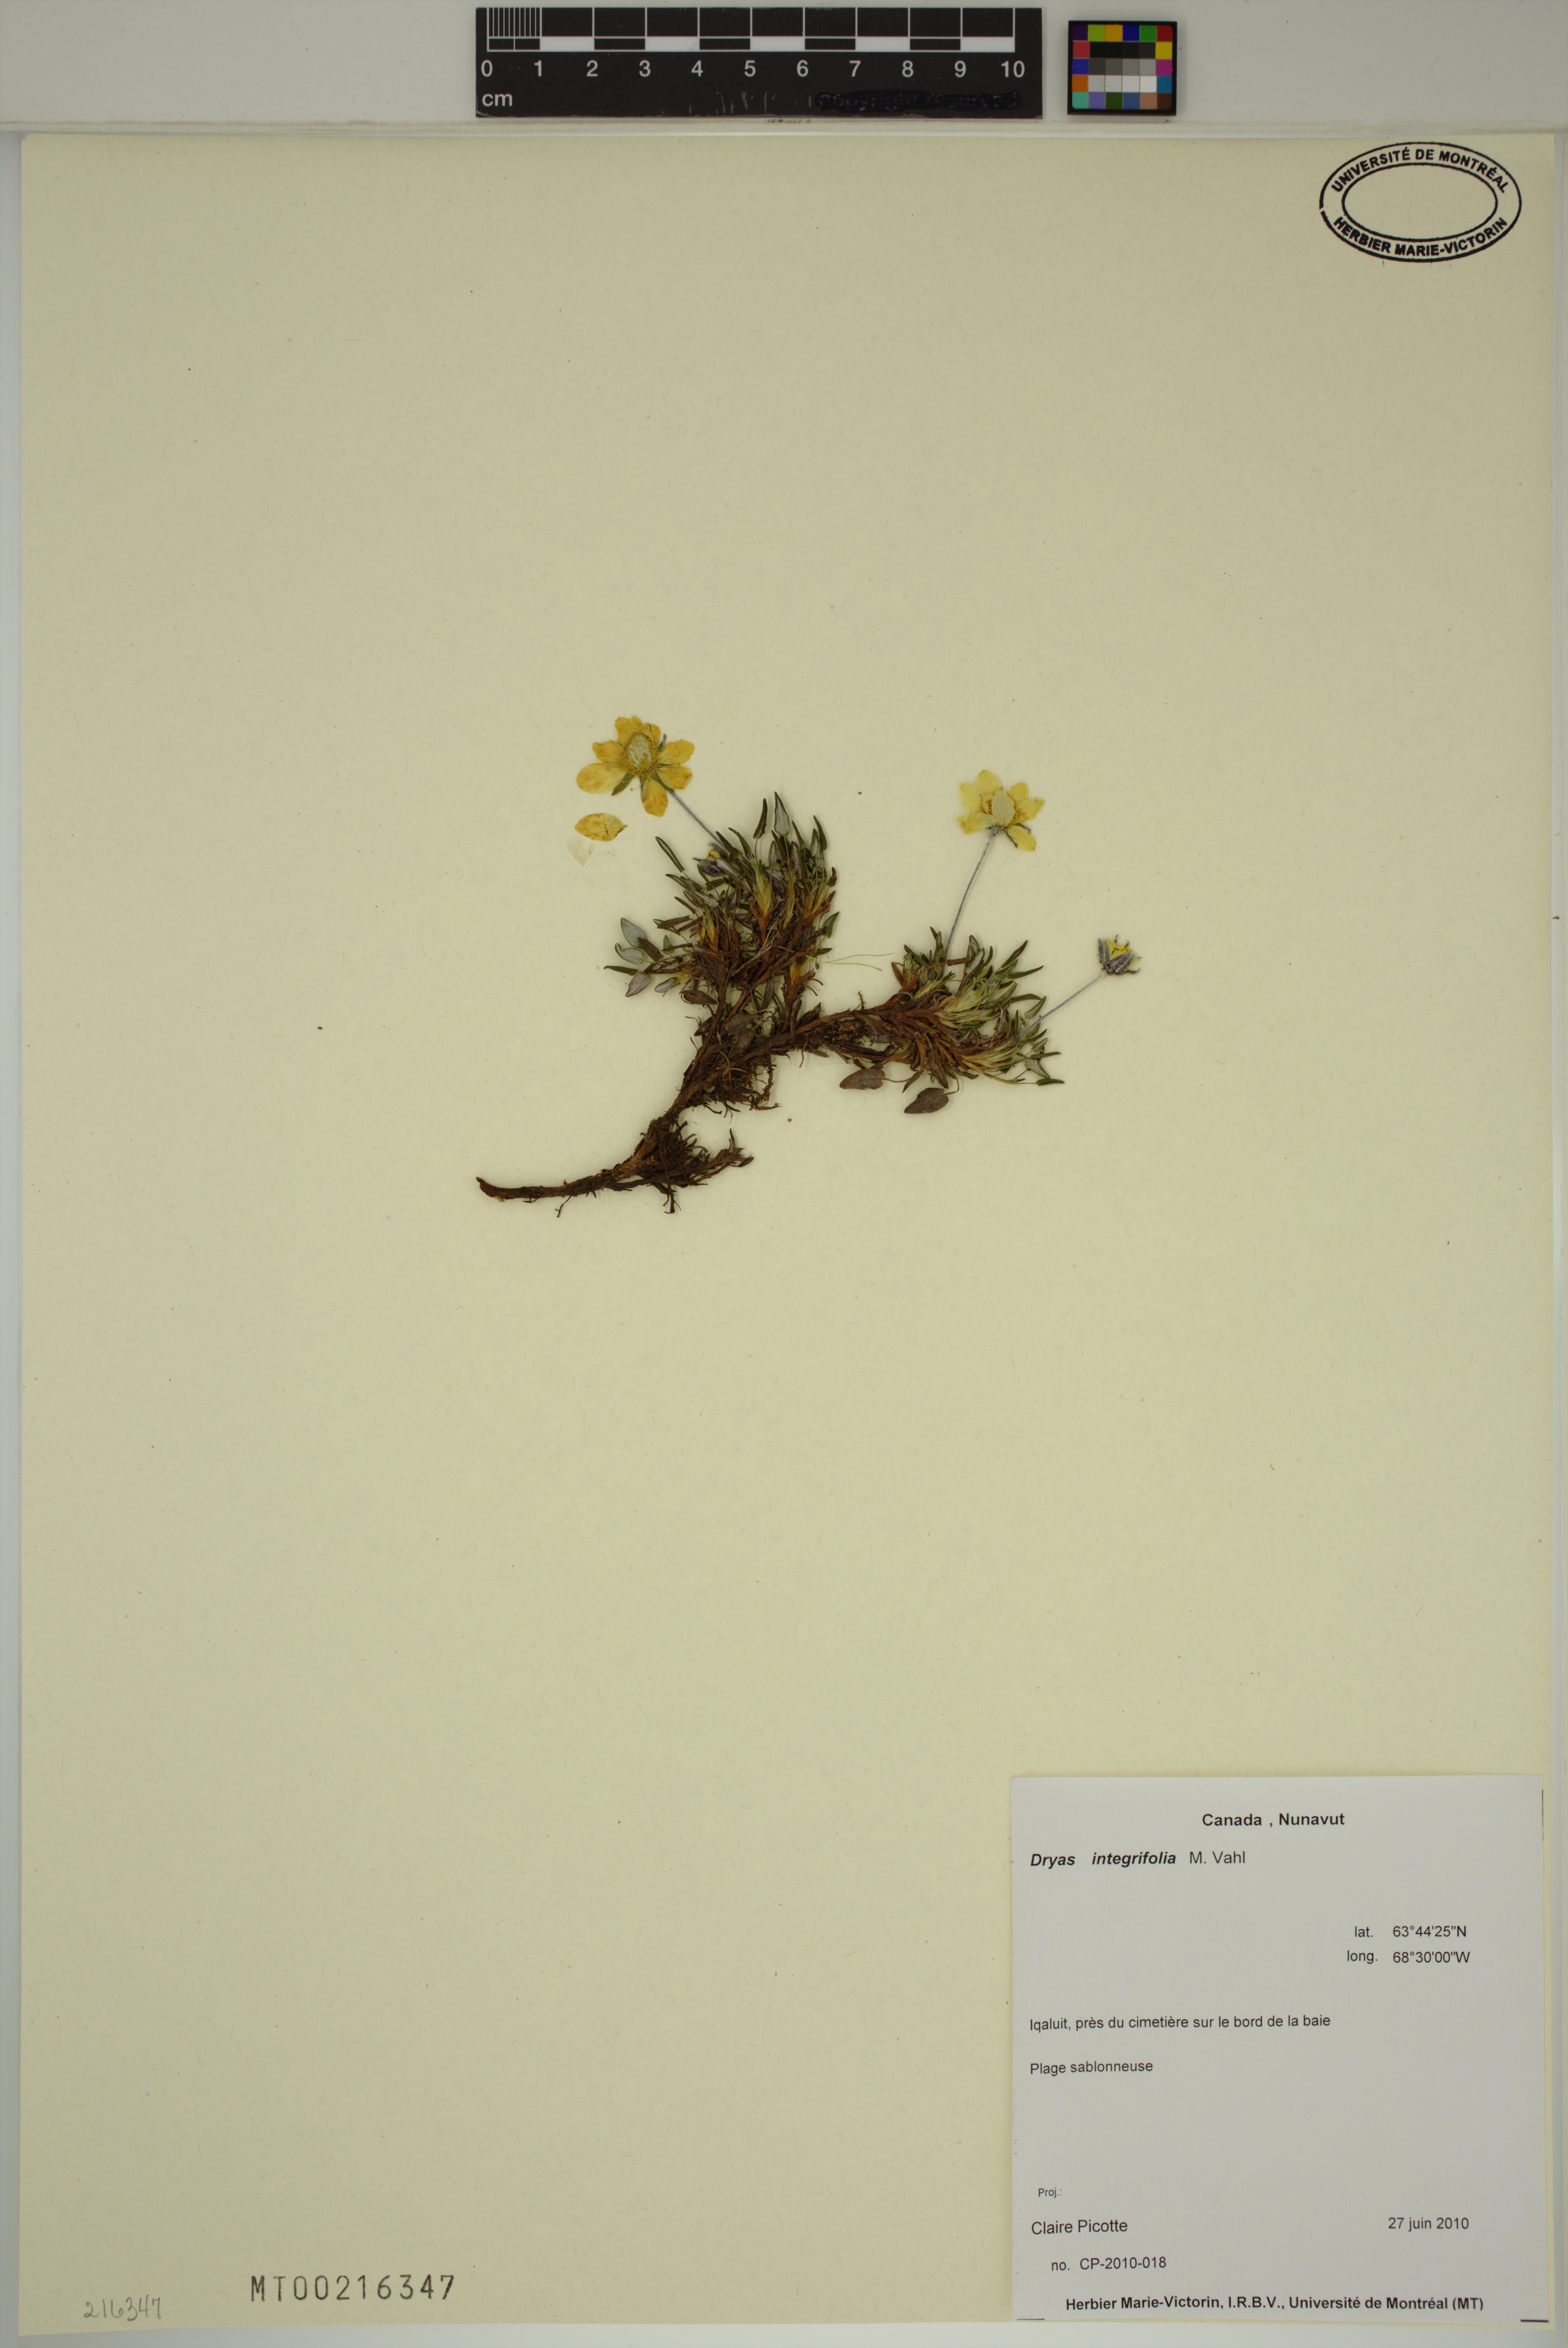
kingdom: Plantae
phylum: Tracheophyta
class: Magnoliopsida
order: Rosales
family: Rosaceae
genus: Dryas
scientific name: Dryas integrifolia
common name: Entire-leaved mountain avens
